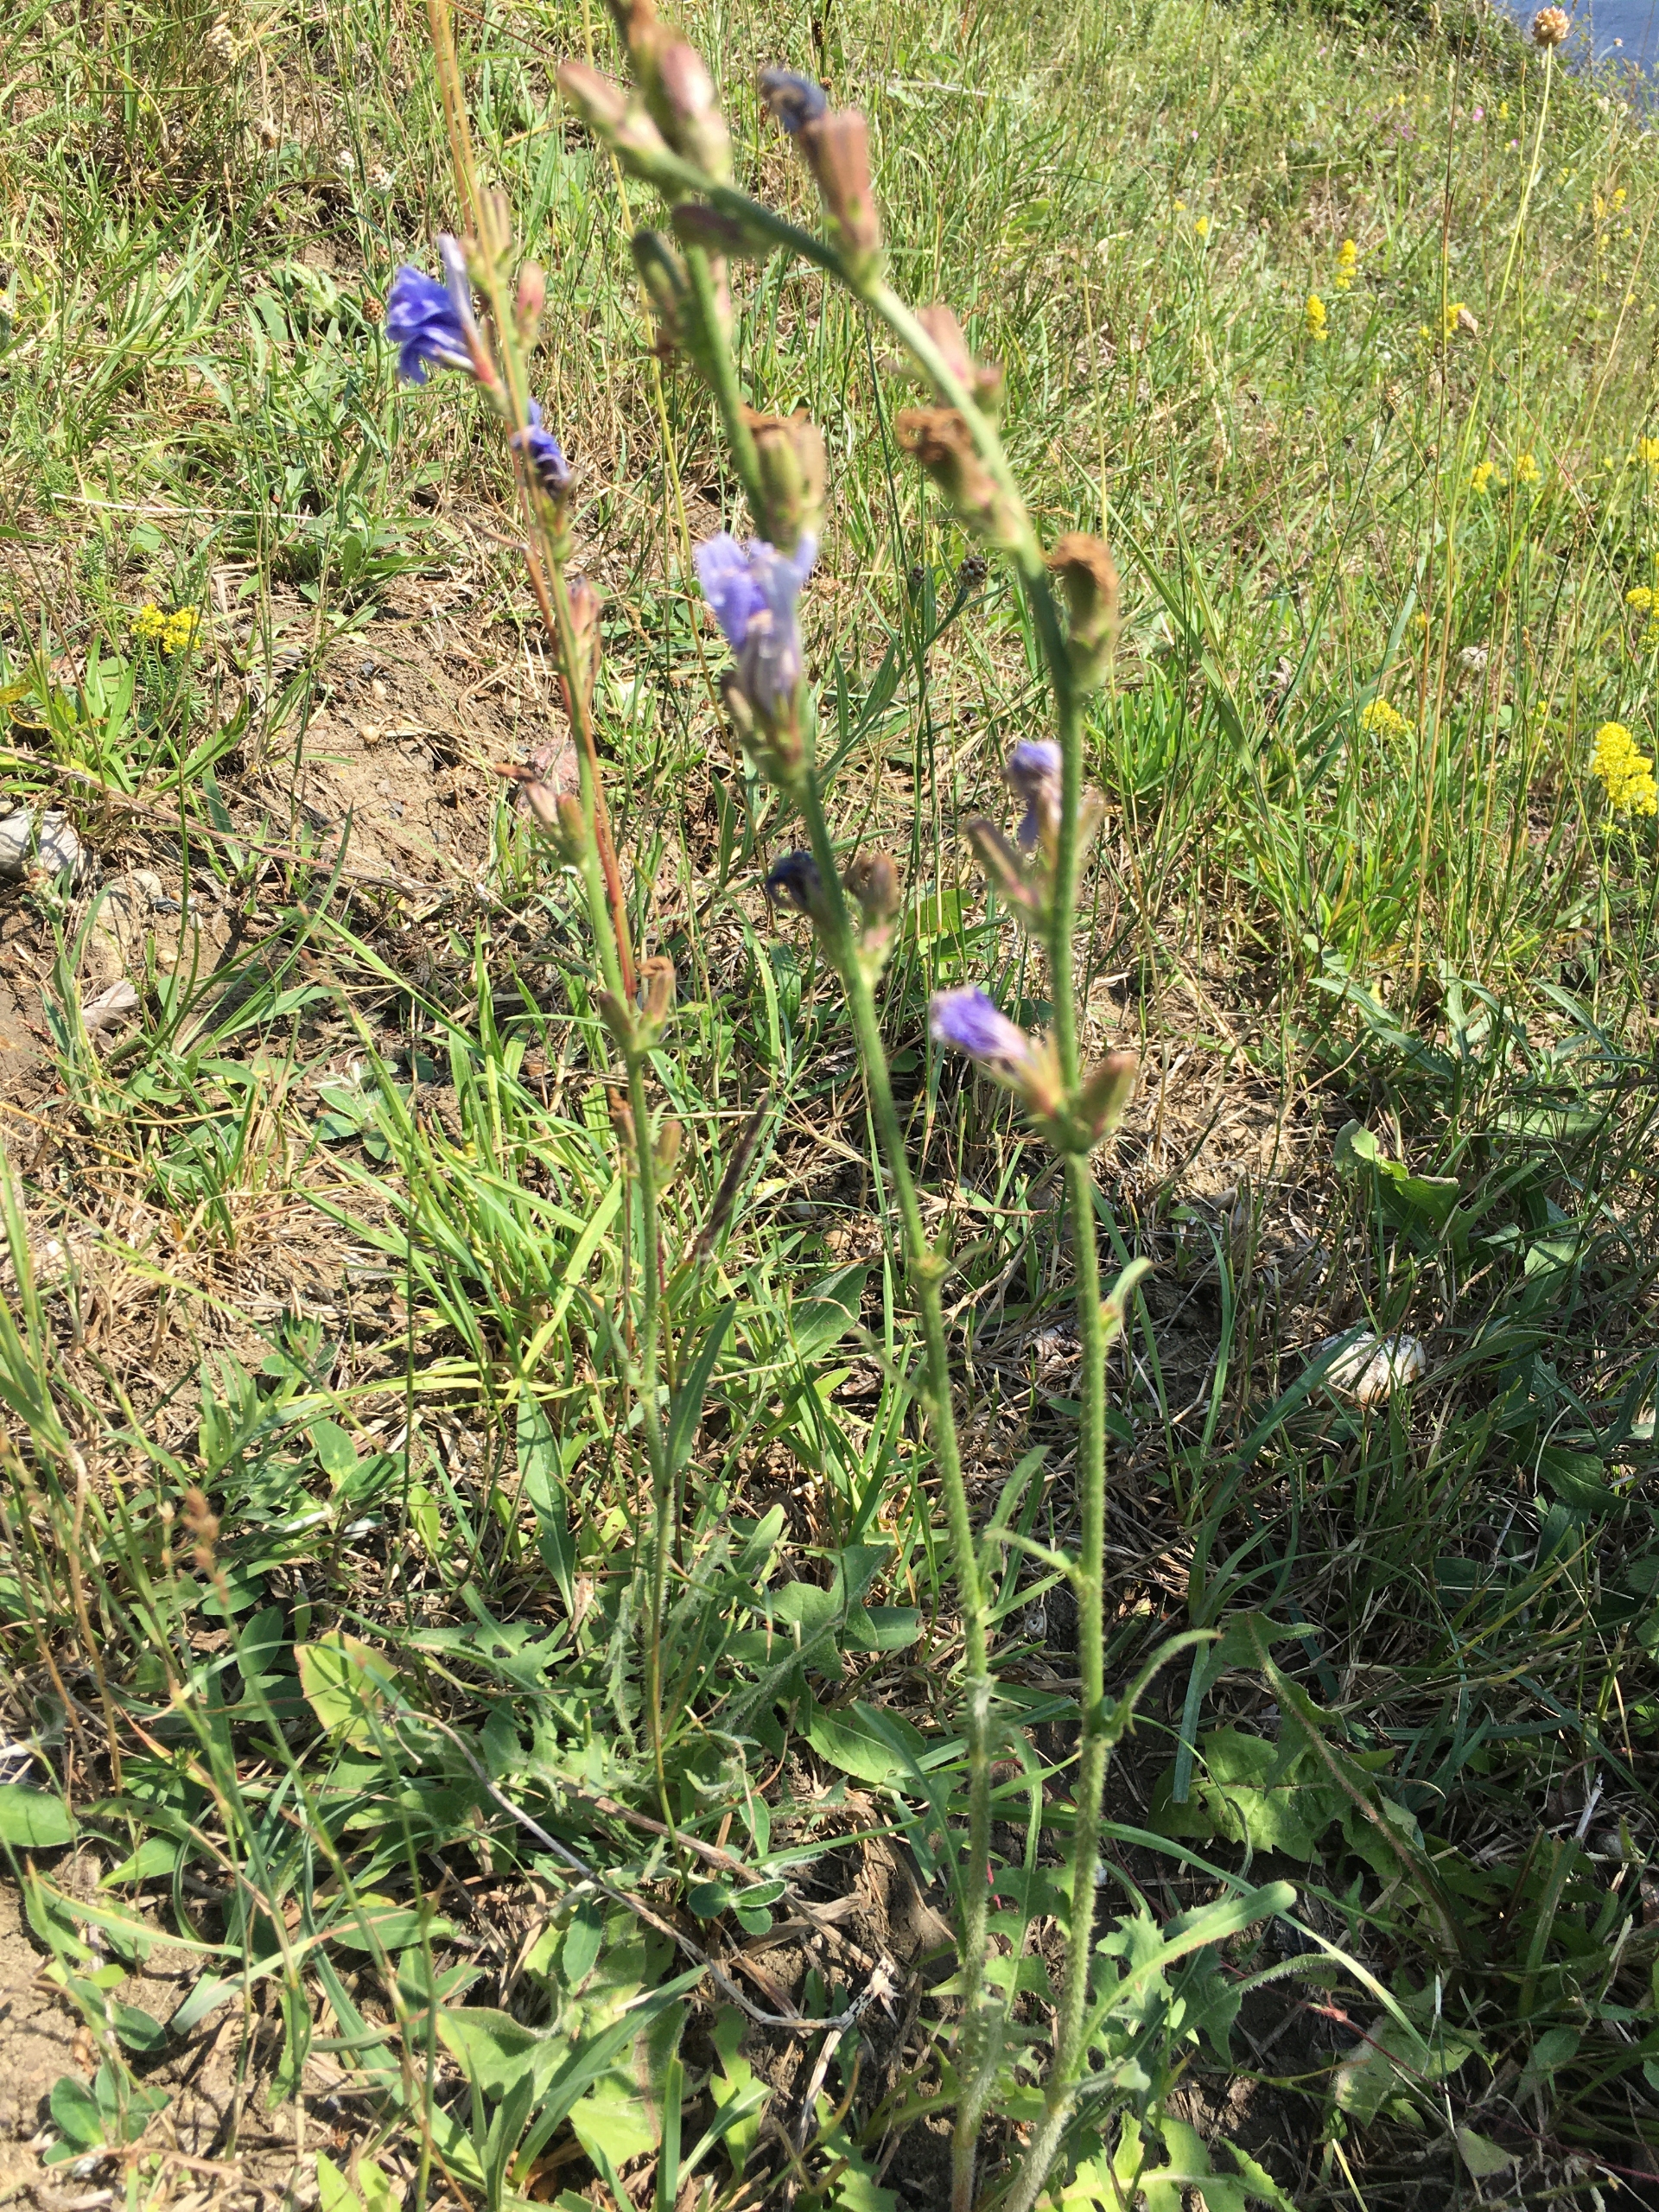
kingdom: Plantae
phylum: Tracheophyta
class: Magnoliopsida
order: Asterales
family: Asteraceae
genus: Cichorium
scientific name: Cichorium intybus
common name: Cikorie
